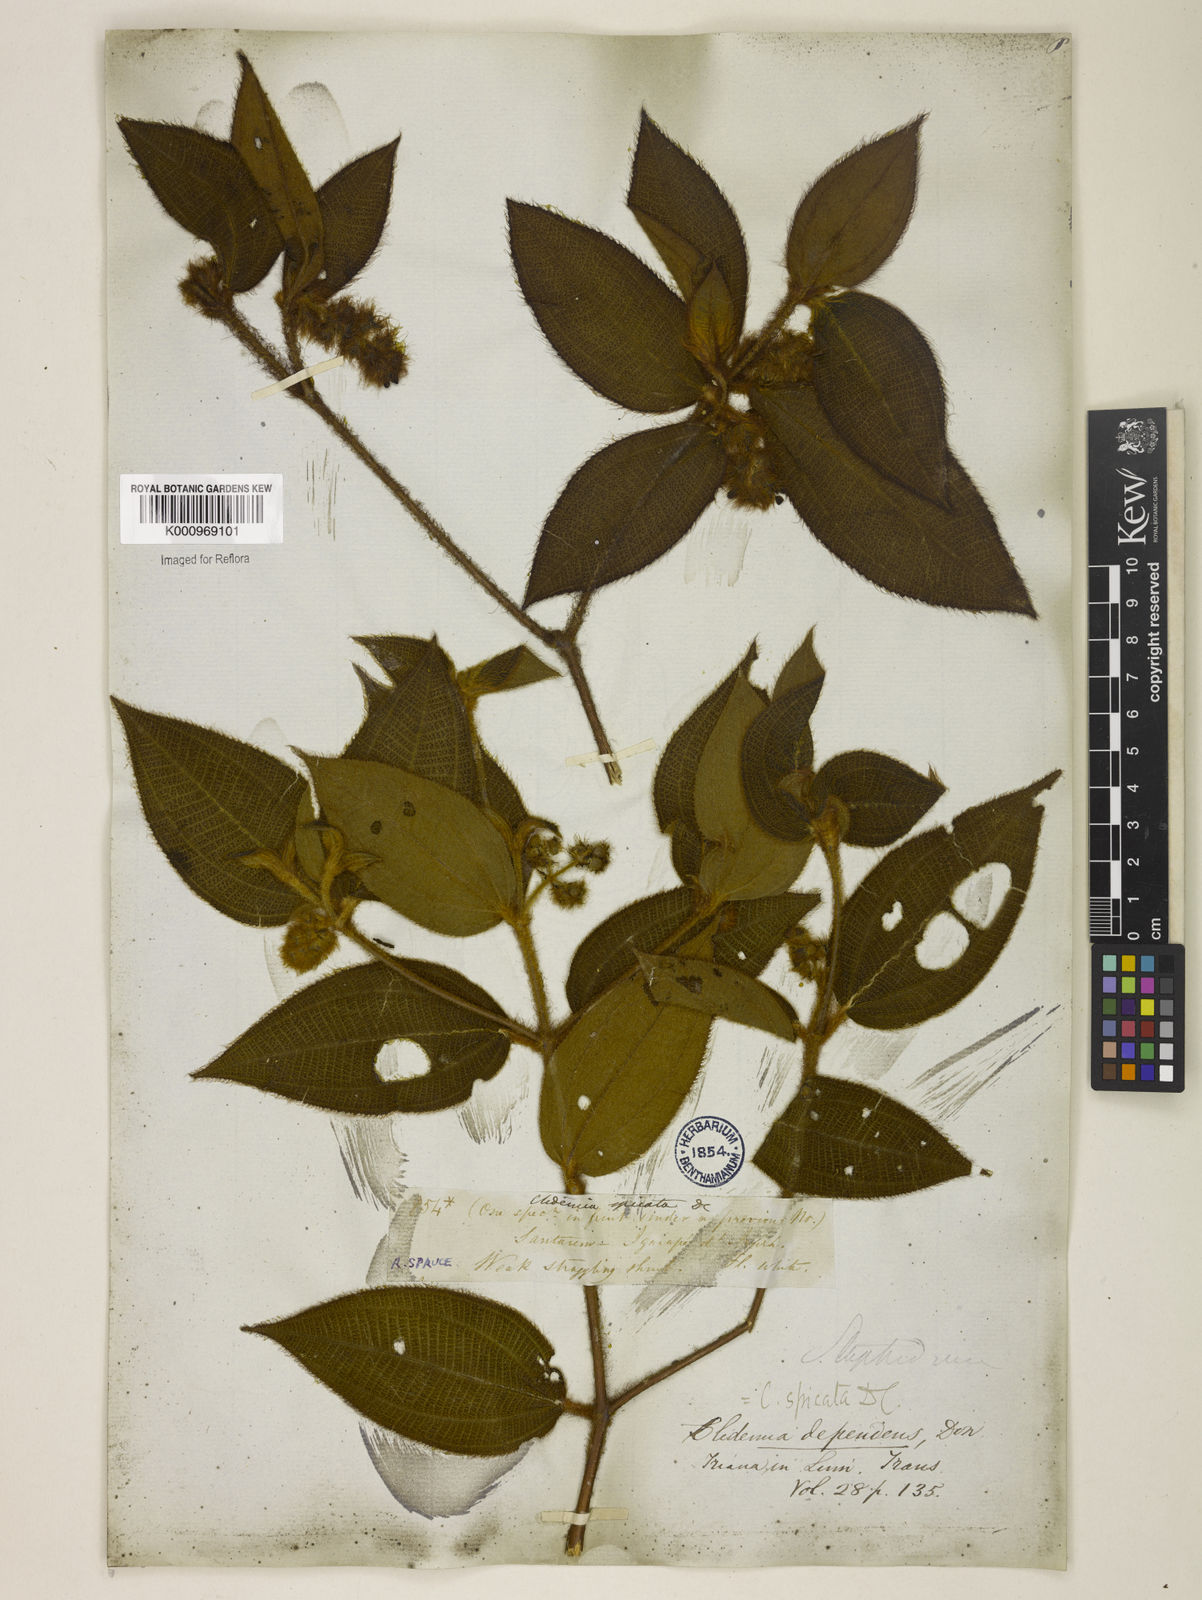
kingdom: Plantae
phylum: Tracheophyta
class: Magnoliopsida
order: Myrtales
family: Melastomataceae
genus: Miconia
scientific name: Miconia dependens
